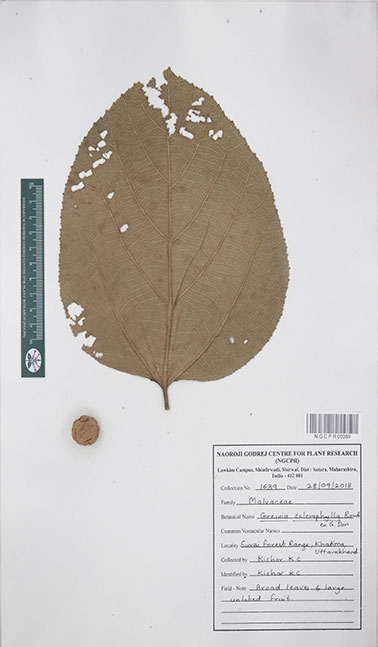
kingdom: Plantae
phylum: Tracheophyta
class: Magnoliopsida
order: Malvales
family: Malvaceae
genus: Grewia
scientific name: Grewia sclerophylla
